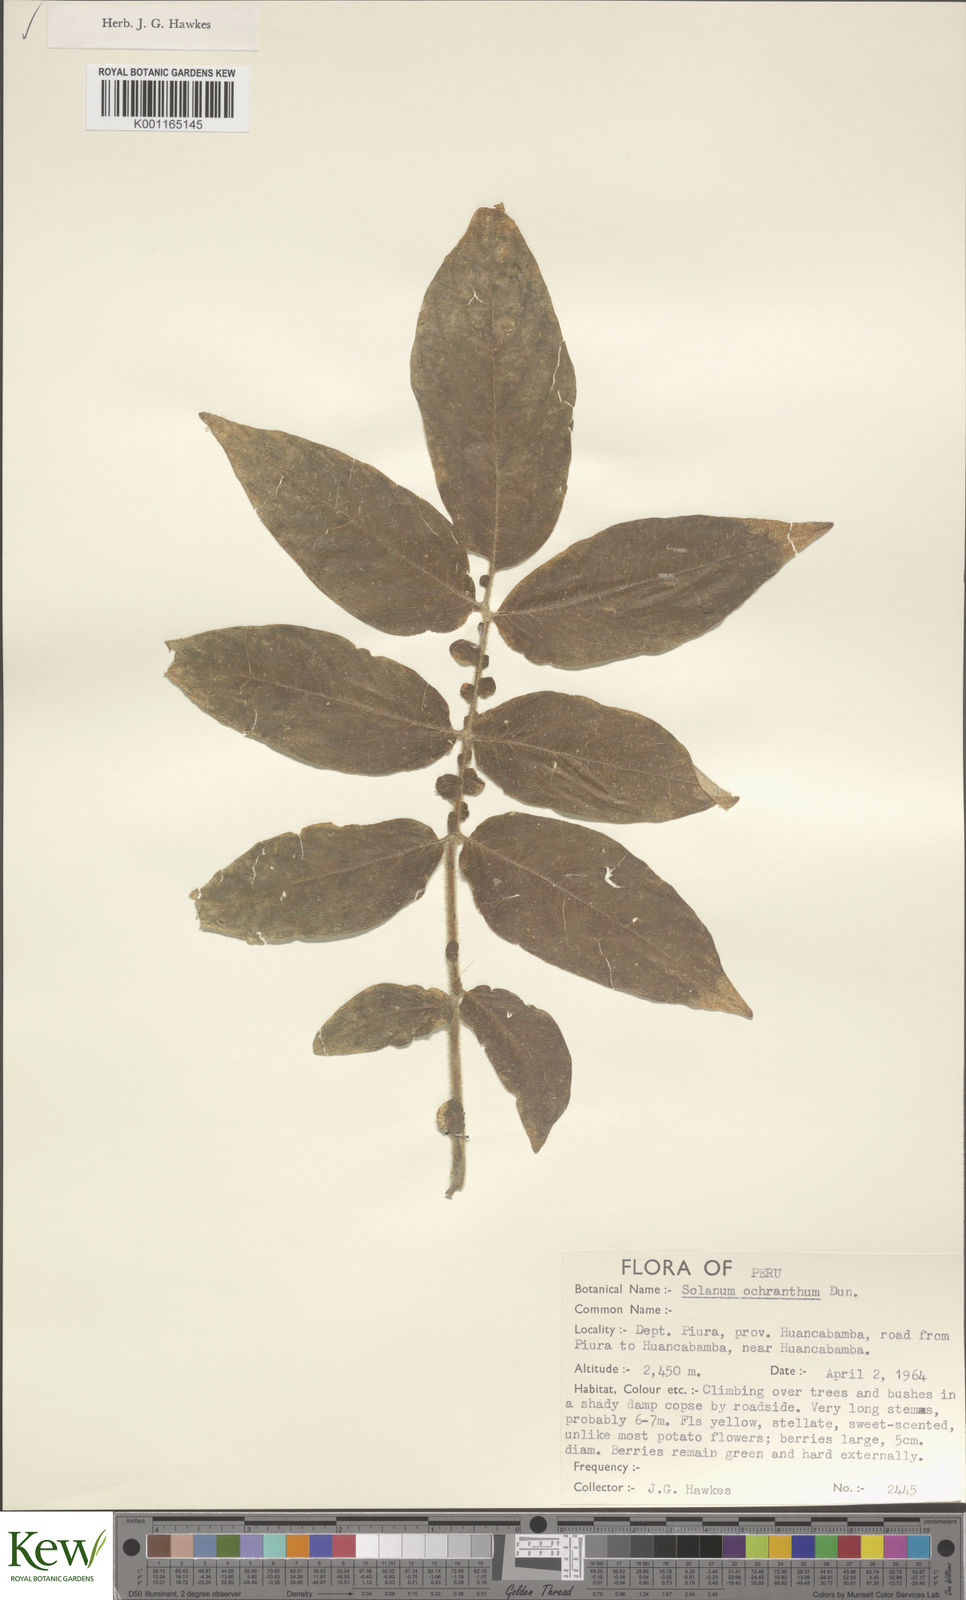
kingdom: Plantae
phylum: Tracheophyta
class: Magnoliopsida
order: Solanales
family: Solanaceae
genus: Solanum
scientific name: Solanum ochranthum
